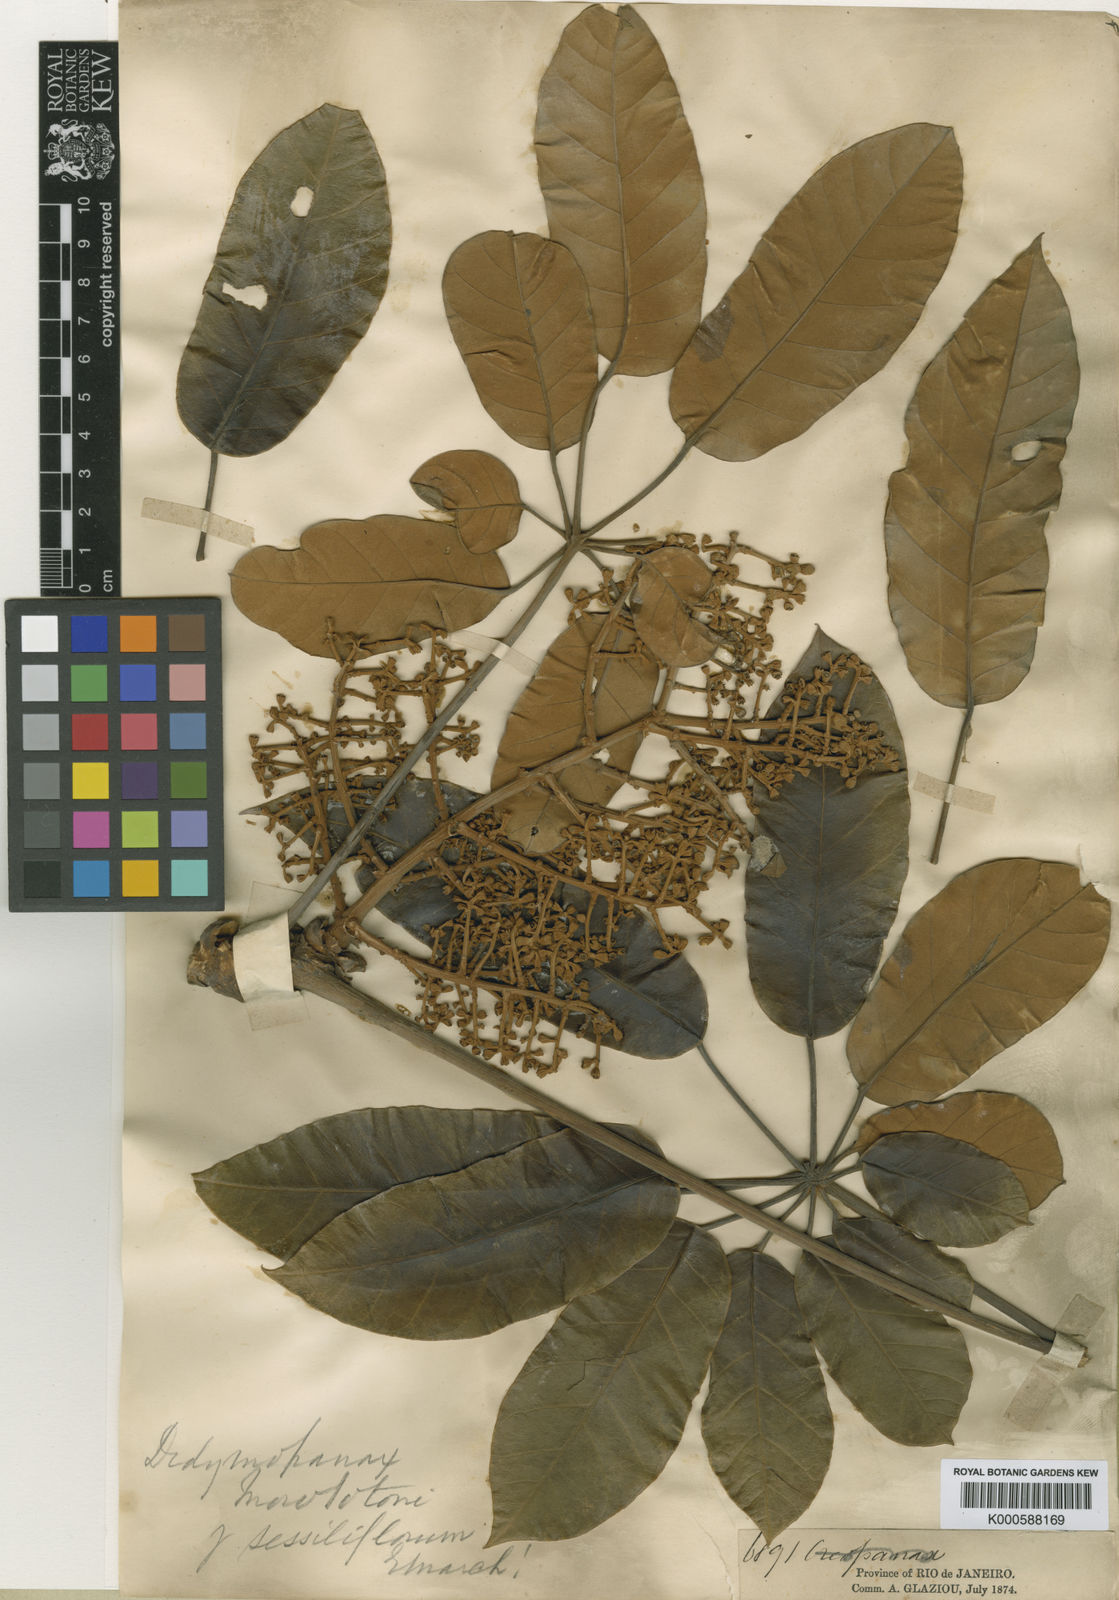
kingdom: Plantae
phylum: Tracheophyta
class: Magnoliopsida
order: Apiales
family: Araliaceae
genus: Didymopanax
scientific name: Didymopanax morototoni
